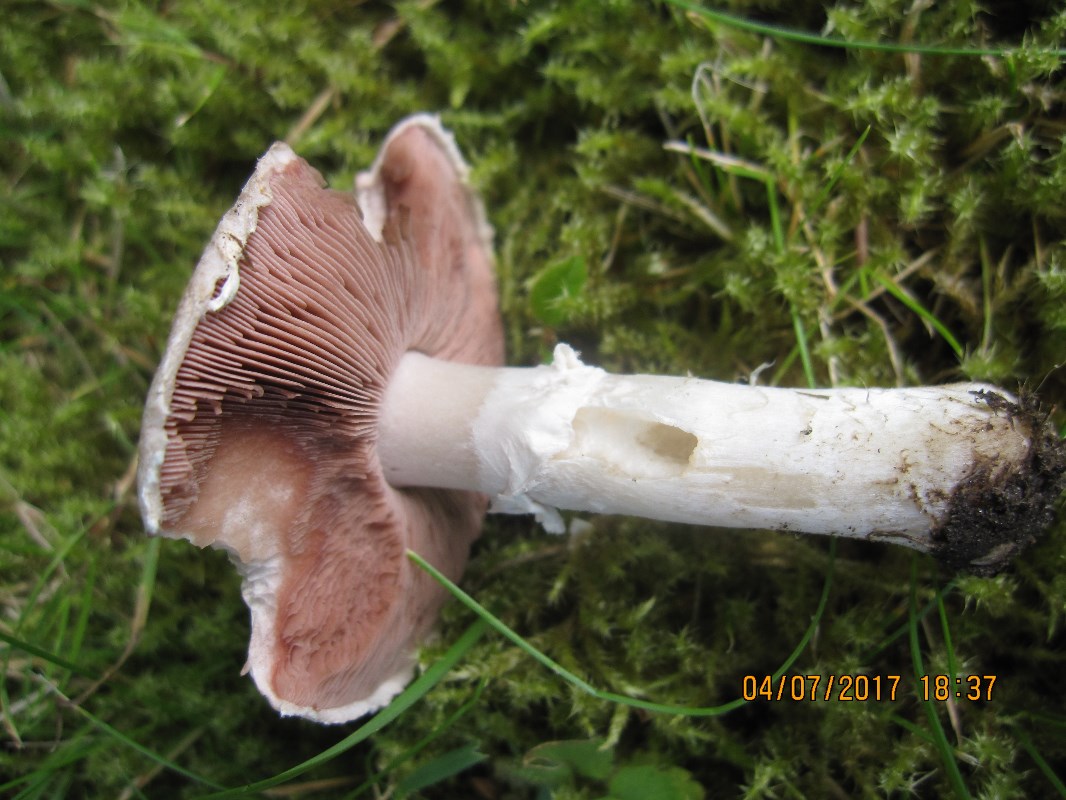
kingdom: Fungi
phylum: Basidiomycota
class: Agaricomycetes
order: Agaricales
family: Agaricaceae
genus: Agaricus
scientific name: Agaricus campestris
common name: mark-champignon
